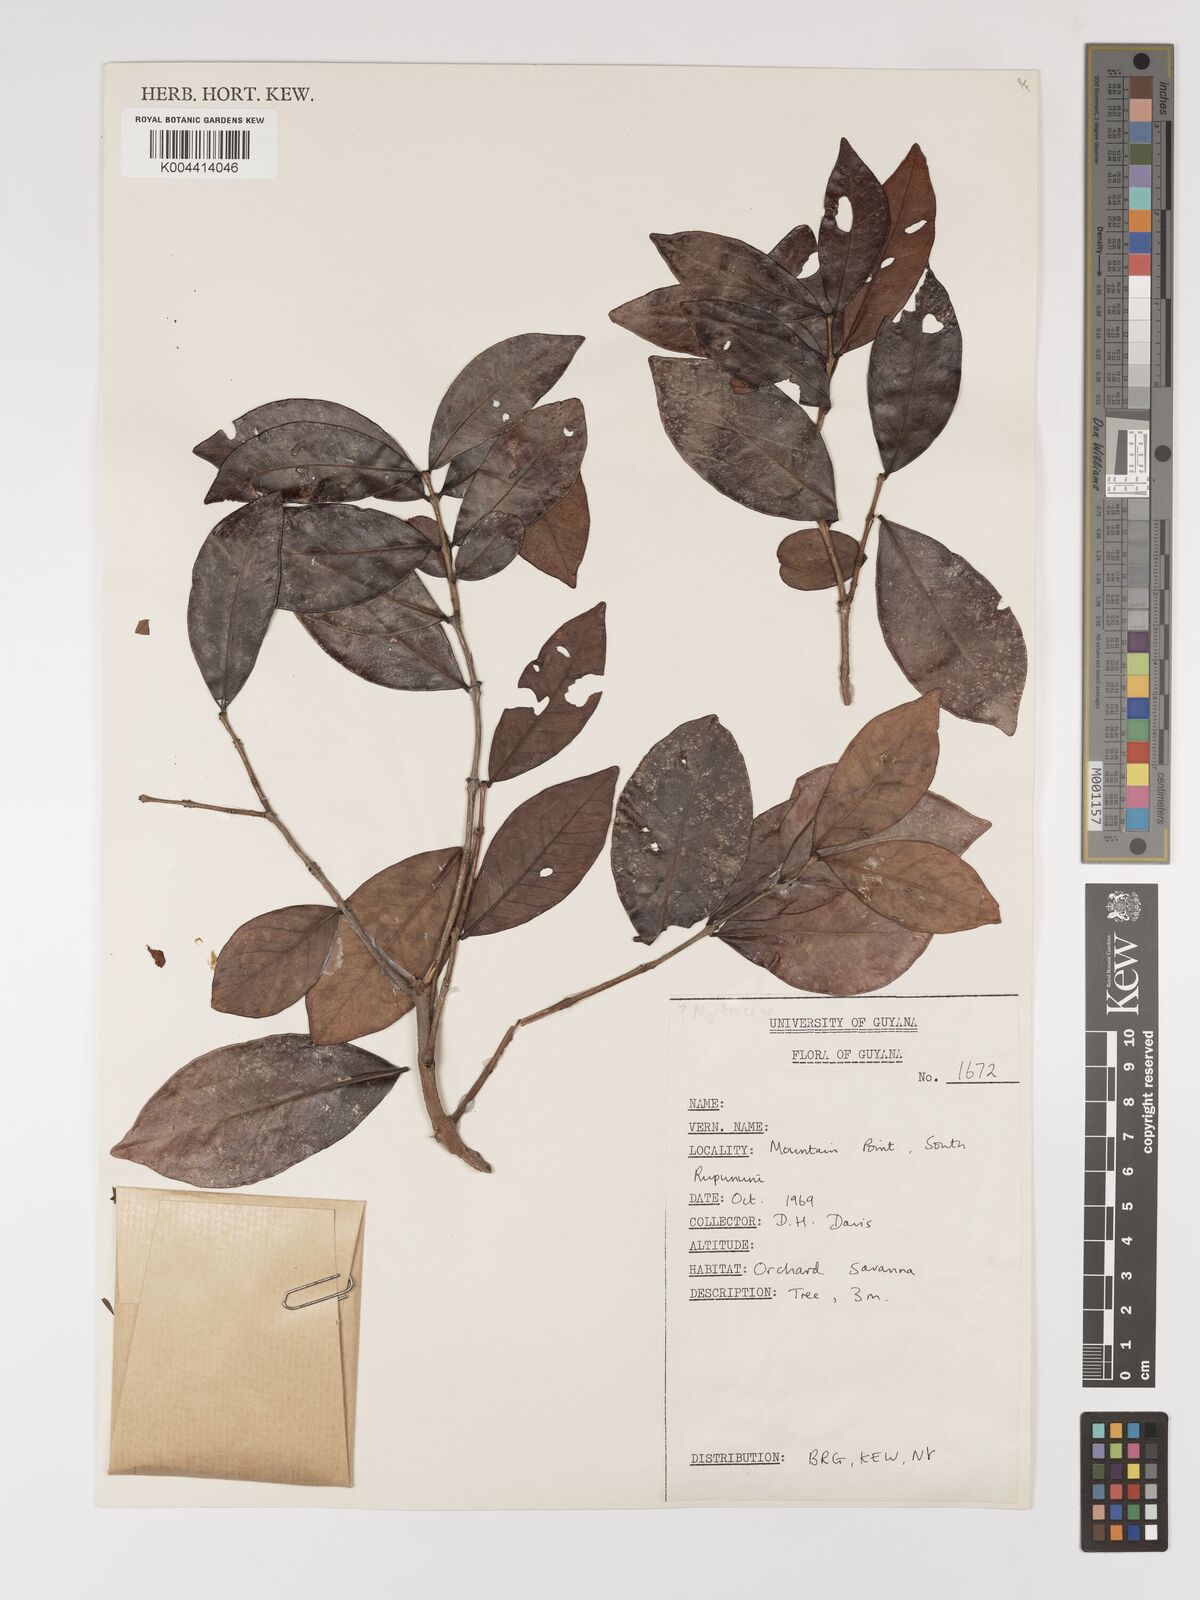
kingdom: Plantae
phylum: Tracheophyta
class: Magnoliopsida
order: Myrtales
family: Myrtaceae
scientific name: Myrtaceae
